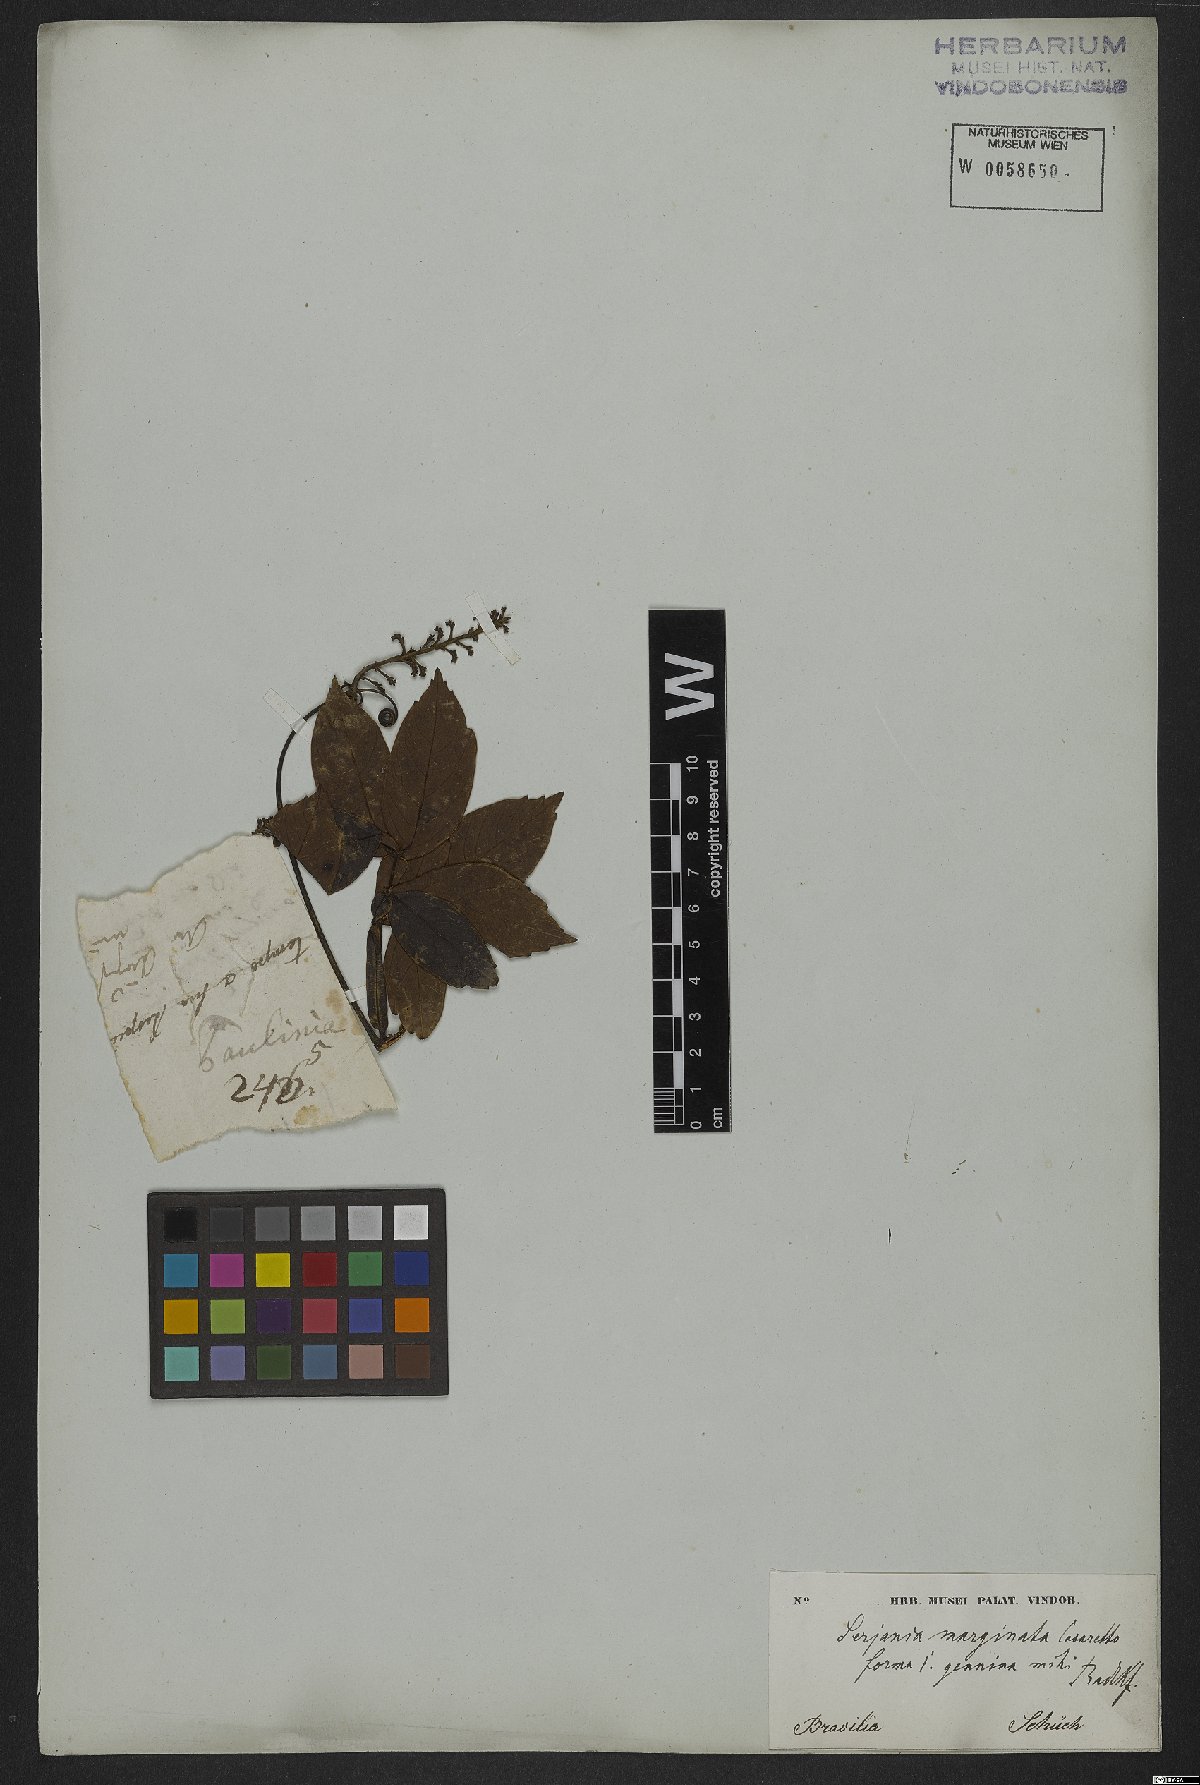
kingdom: Plantae
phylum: Tracheophyta
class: Magnoliopsida
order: Sapindales
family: Sapindaceae
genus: Serjania
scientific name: Serjania marginata
